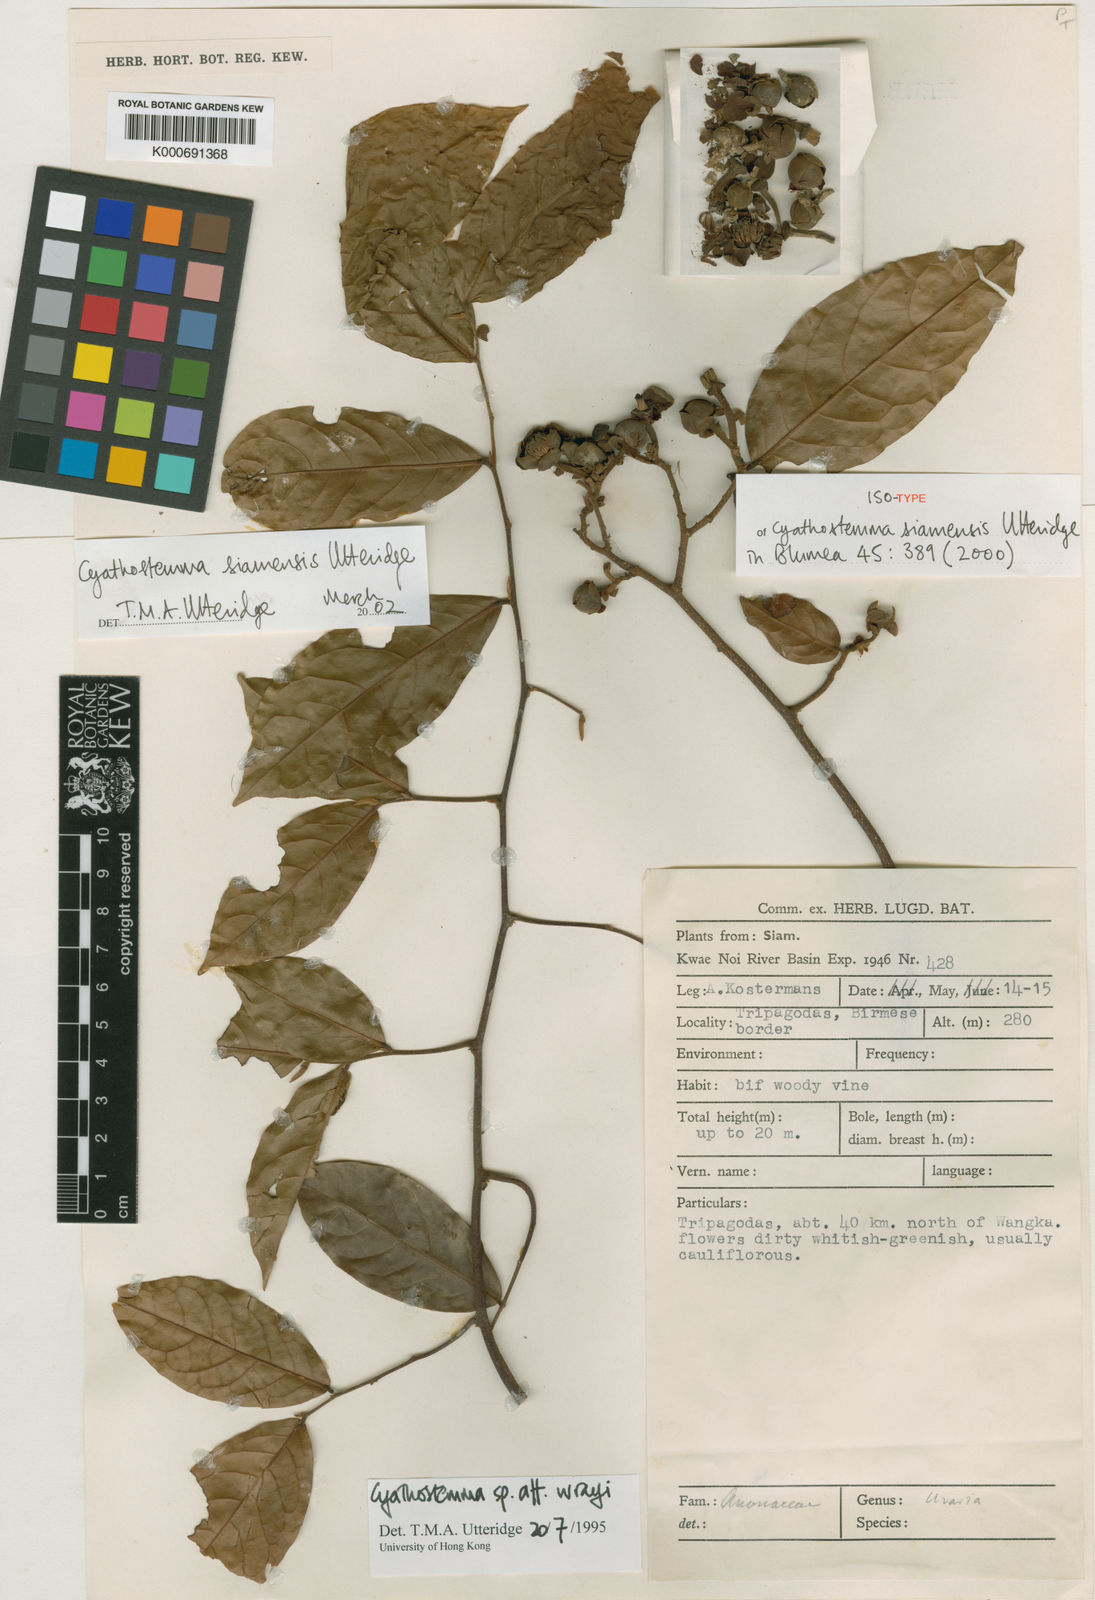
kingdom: Plantae
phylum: Tracheophyta
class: Magnoliopsida
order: Magnoliales
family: Annonaceae
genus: Uvaria
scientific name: Uvaria utteridgei
